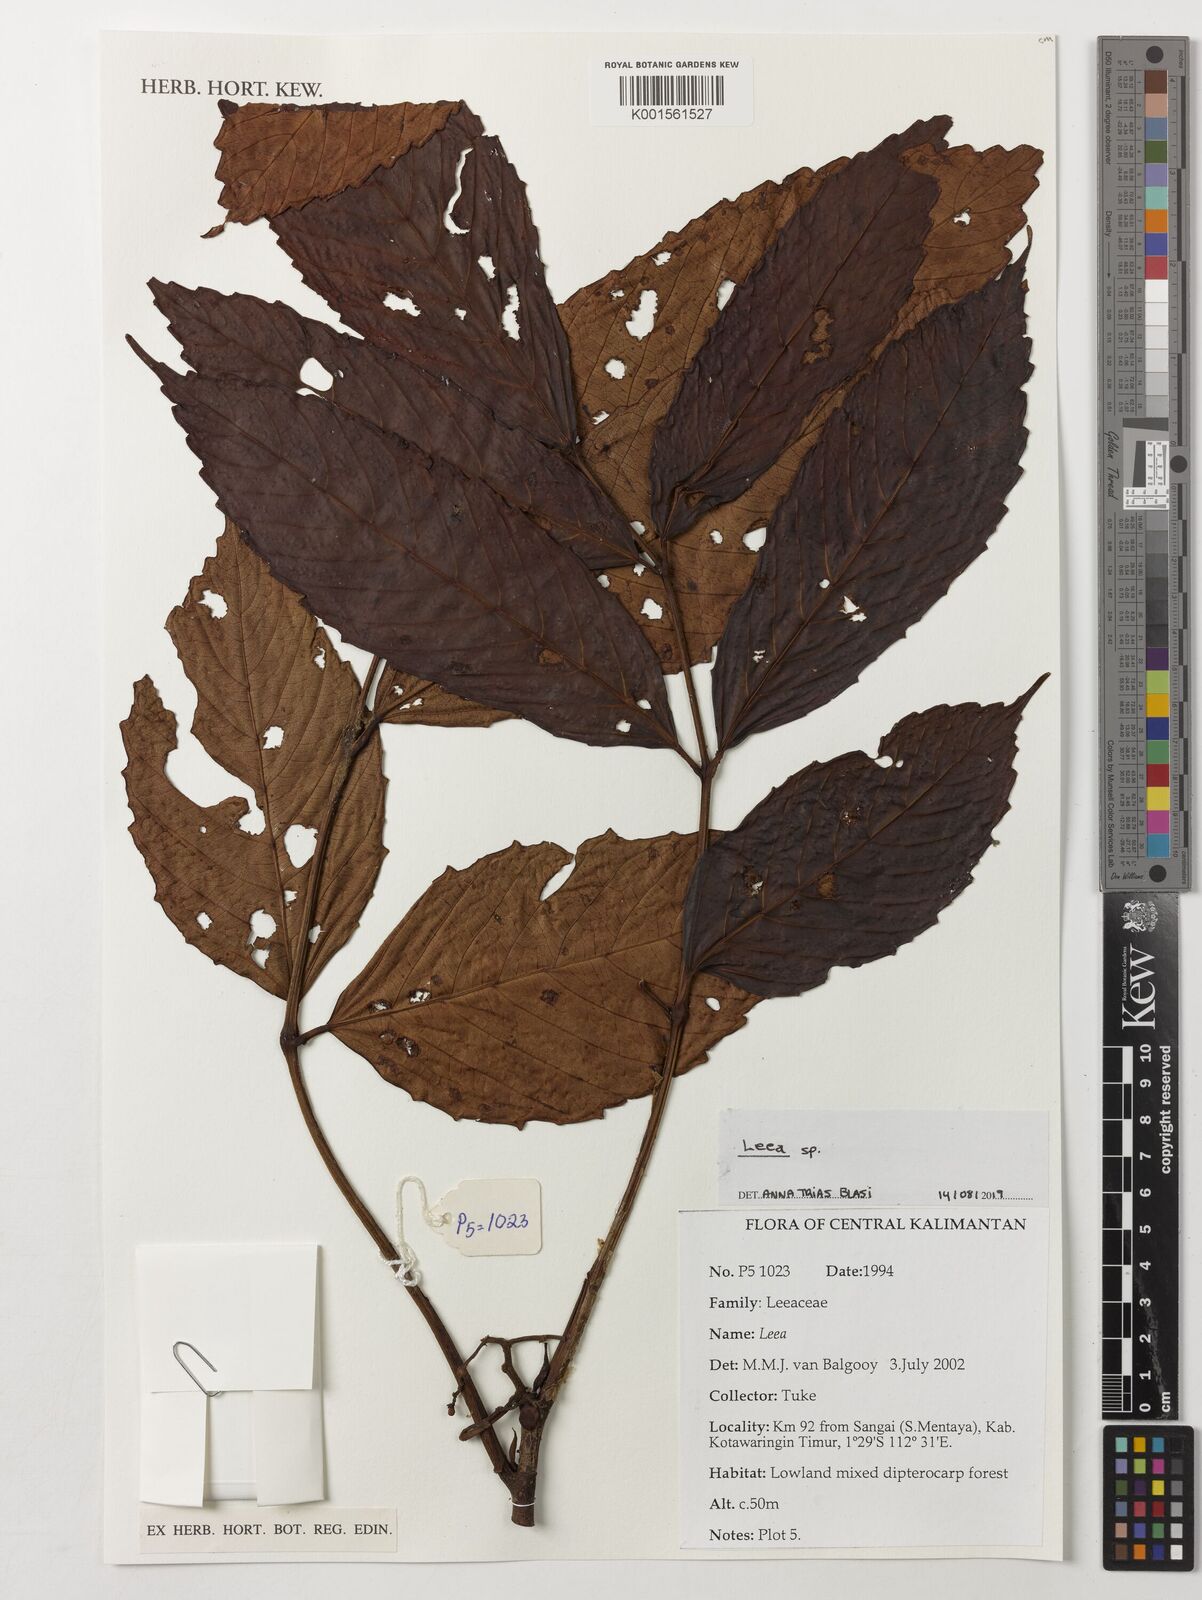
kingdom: Plantae
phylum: Tracheophyta
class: Magnoliopsida
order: Vitales
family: Vitaceae
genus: Leea
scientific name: Leea
